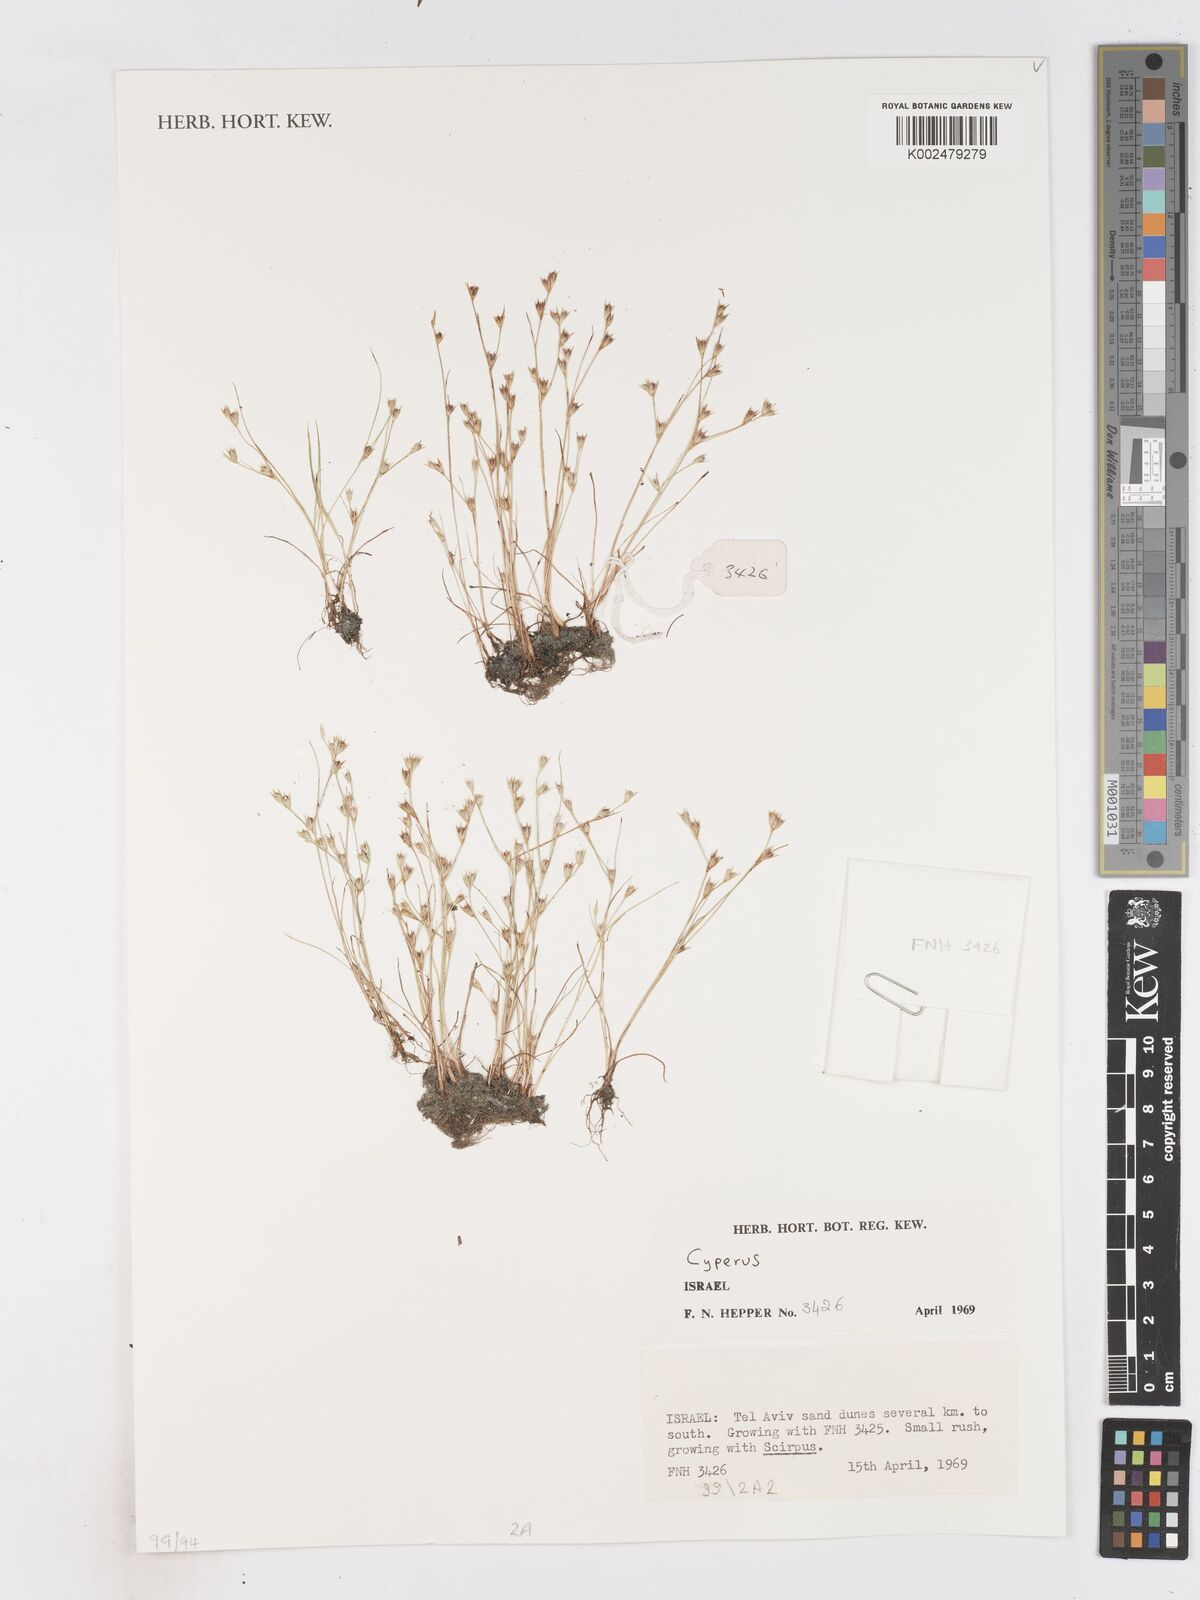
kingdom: Plantae
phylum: Tracheophyta
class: Liliopsida
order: Poales
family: Cyperaceae
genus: Cyperus
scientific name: Cyperus
